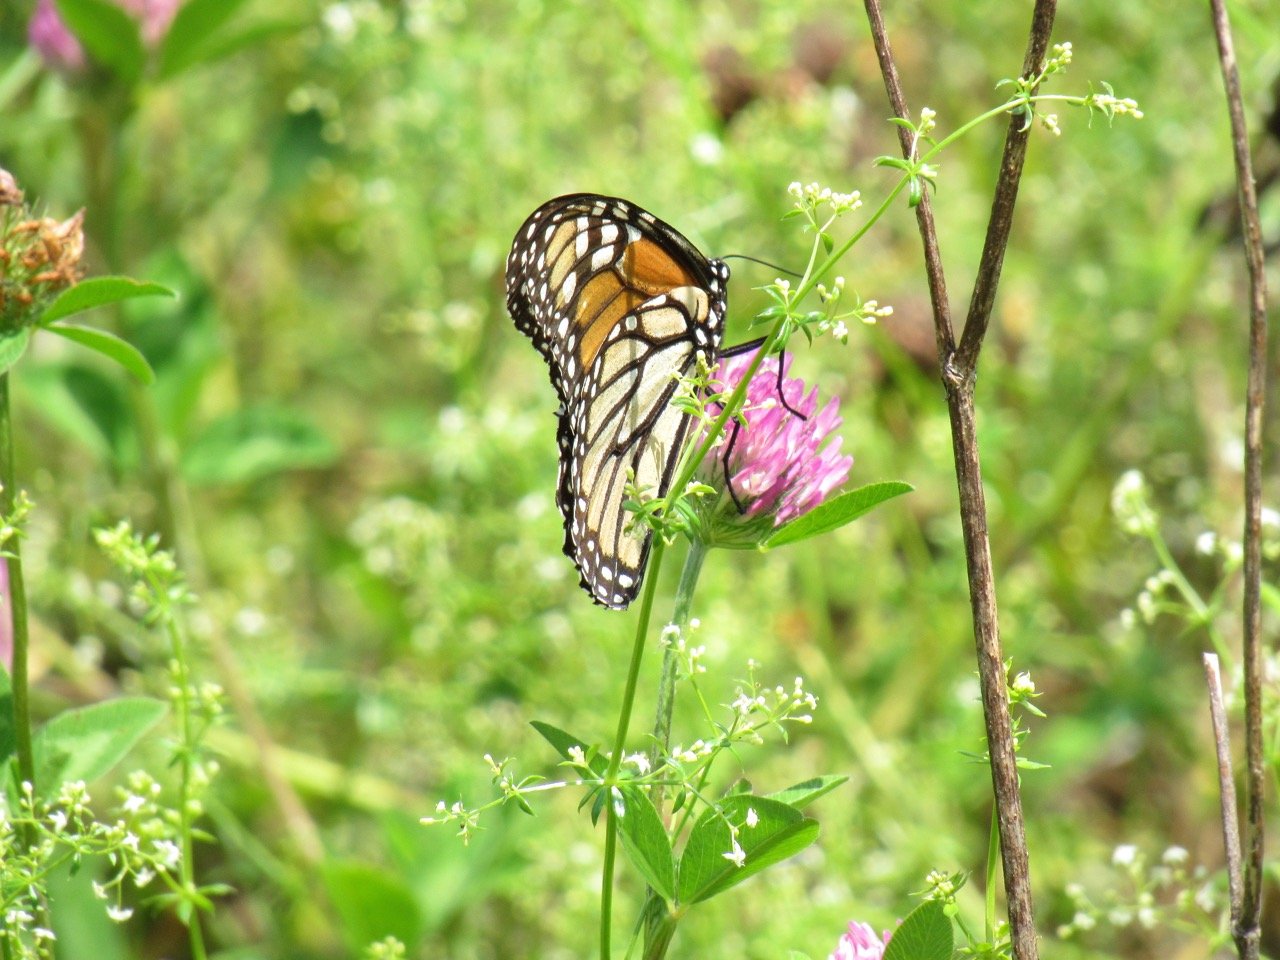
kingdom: Animalia
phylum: Arthropoda
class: Insecta
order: Lepidoptera
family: Nymphalidae
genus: Danaus
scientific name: Danaus plexippus
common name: Monarch
